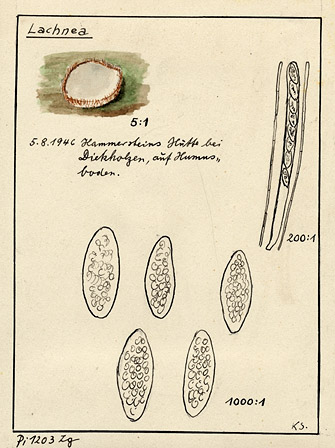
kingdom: Fungi
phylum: Ascomycota
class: Pezizomycetes
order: Pezizales
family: Pyronemataceae
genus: Lachnea
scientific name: Lachnea
